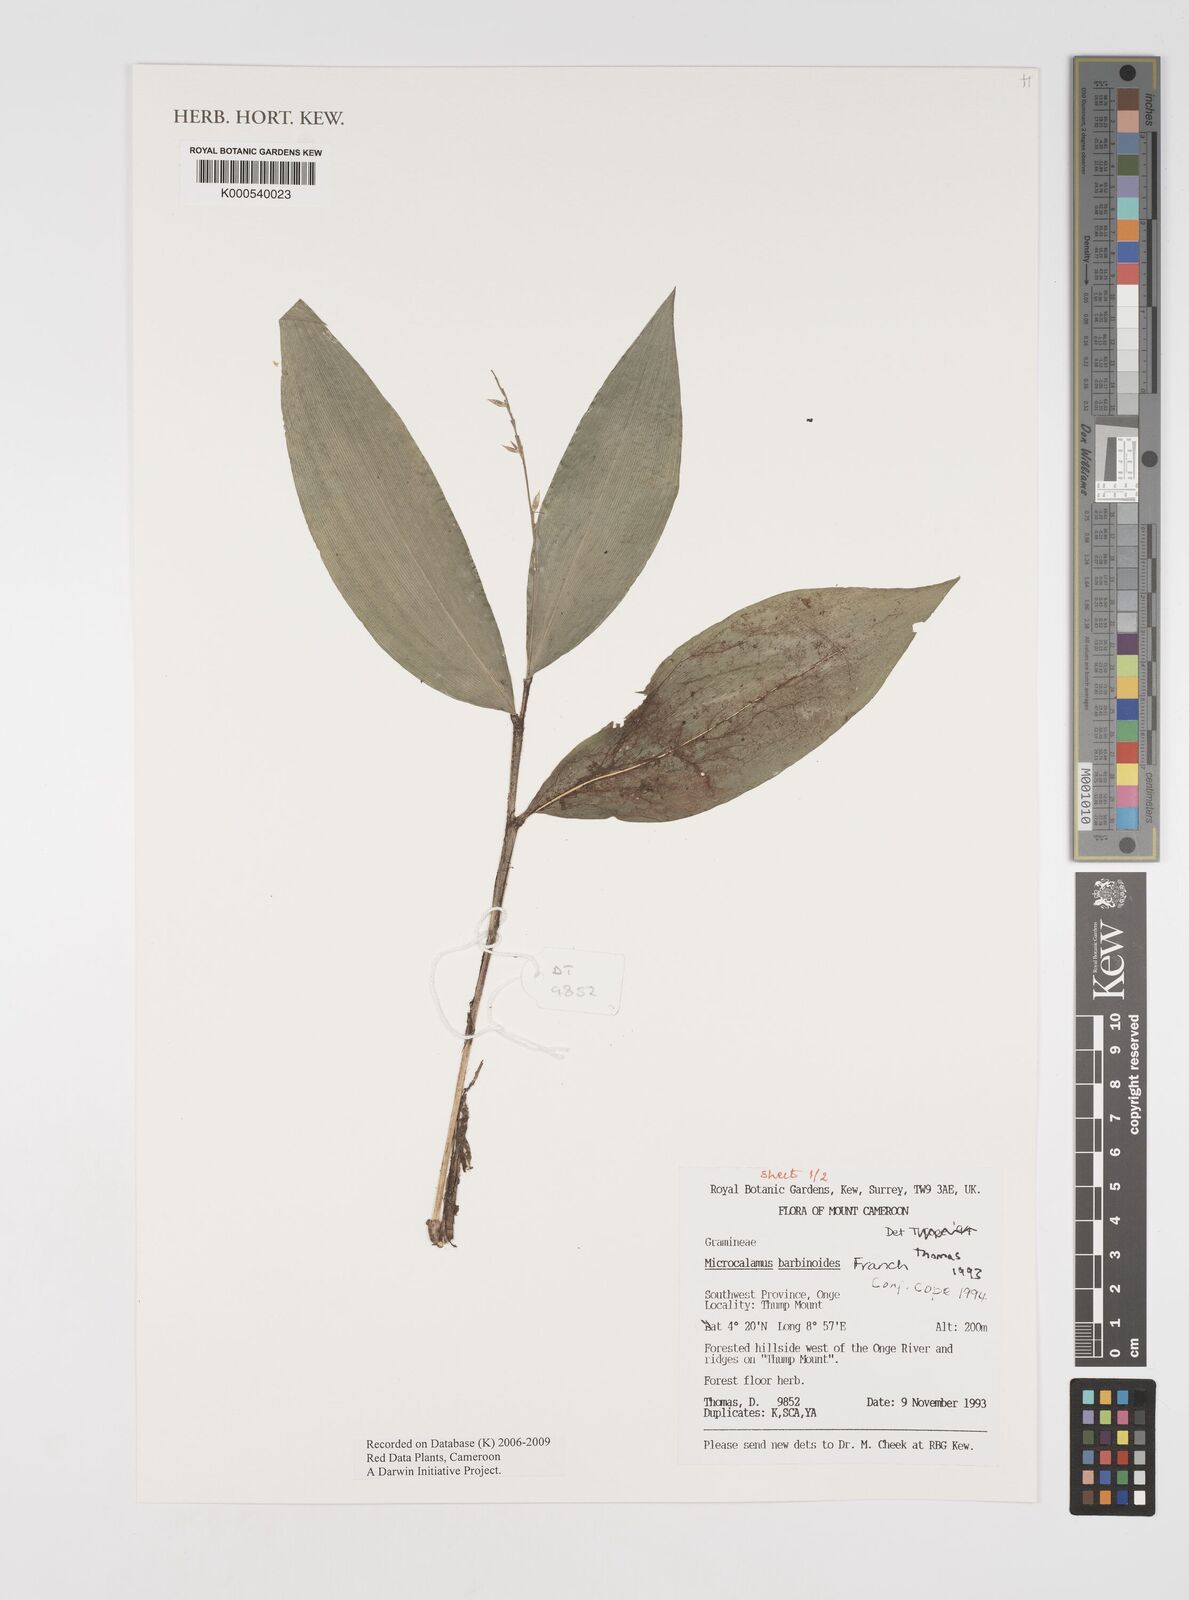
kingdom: Plantae
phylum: Tracheophyta
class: Liliopsida
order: Poales
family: Poaceae
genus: Microcalamus
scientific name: Microcalamus barbinodis
